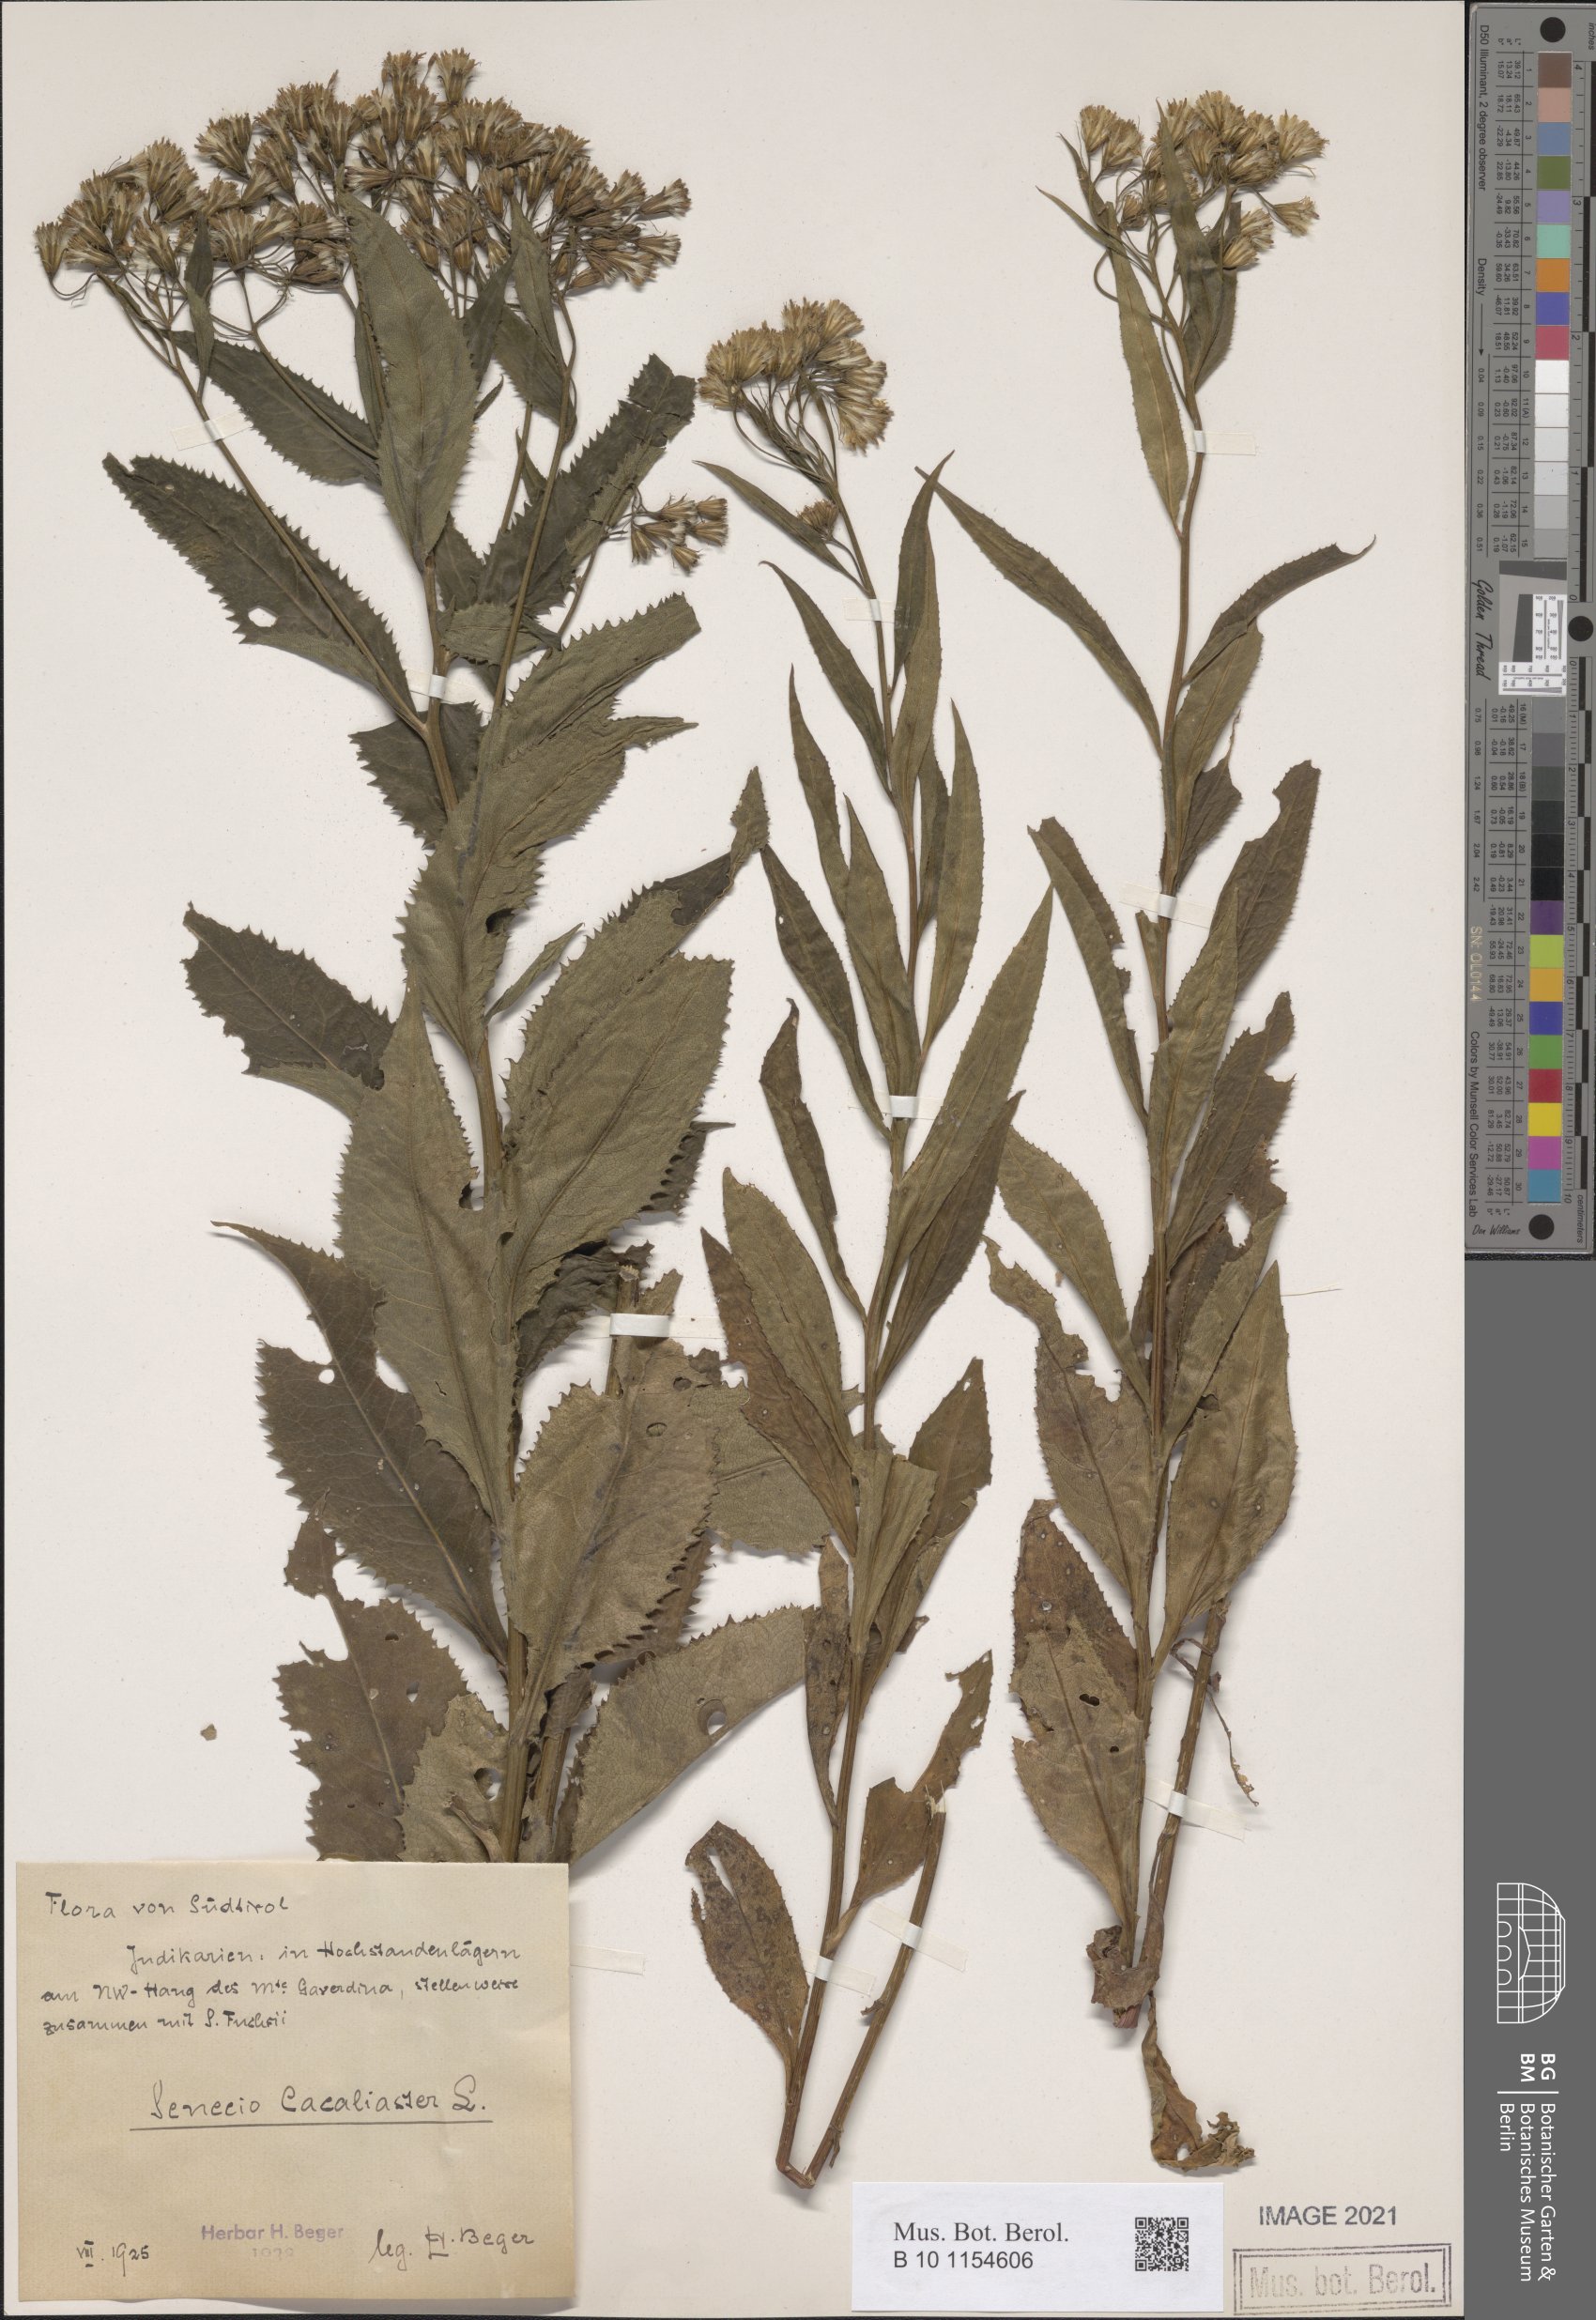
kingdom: Plantae
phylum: Tracheophyta
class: Magnoliopsida
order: Asterales
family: Asteraceae
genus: Senecio
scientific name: Senecio cacaliaster
